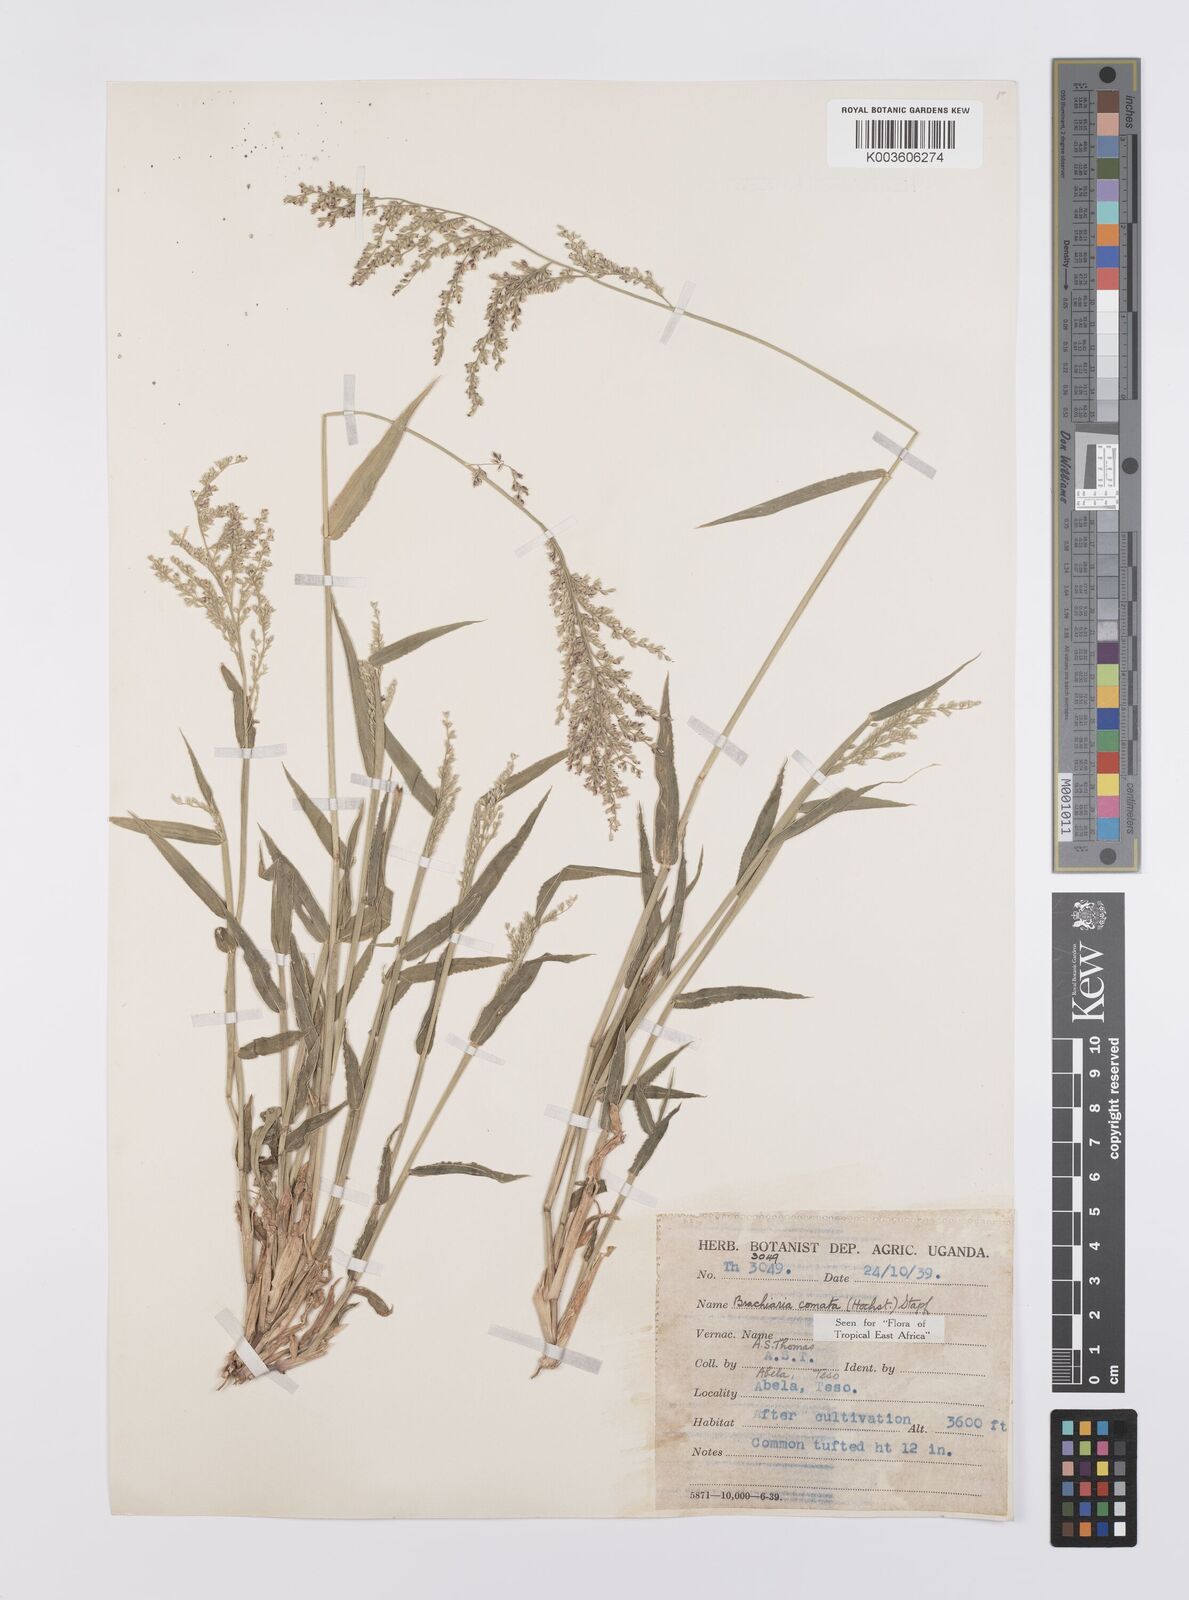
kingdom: Plantae
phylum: Tracheophyta
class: Liliopsida
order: Poales
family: Poaceae
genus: Urochloa
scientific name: Urochloa comata
